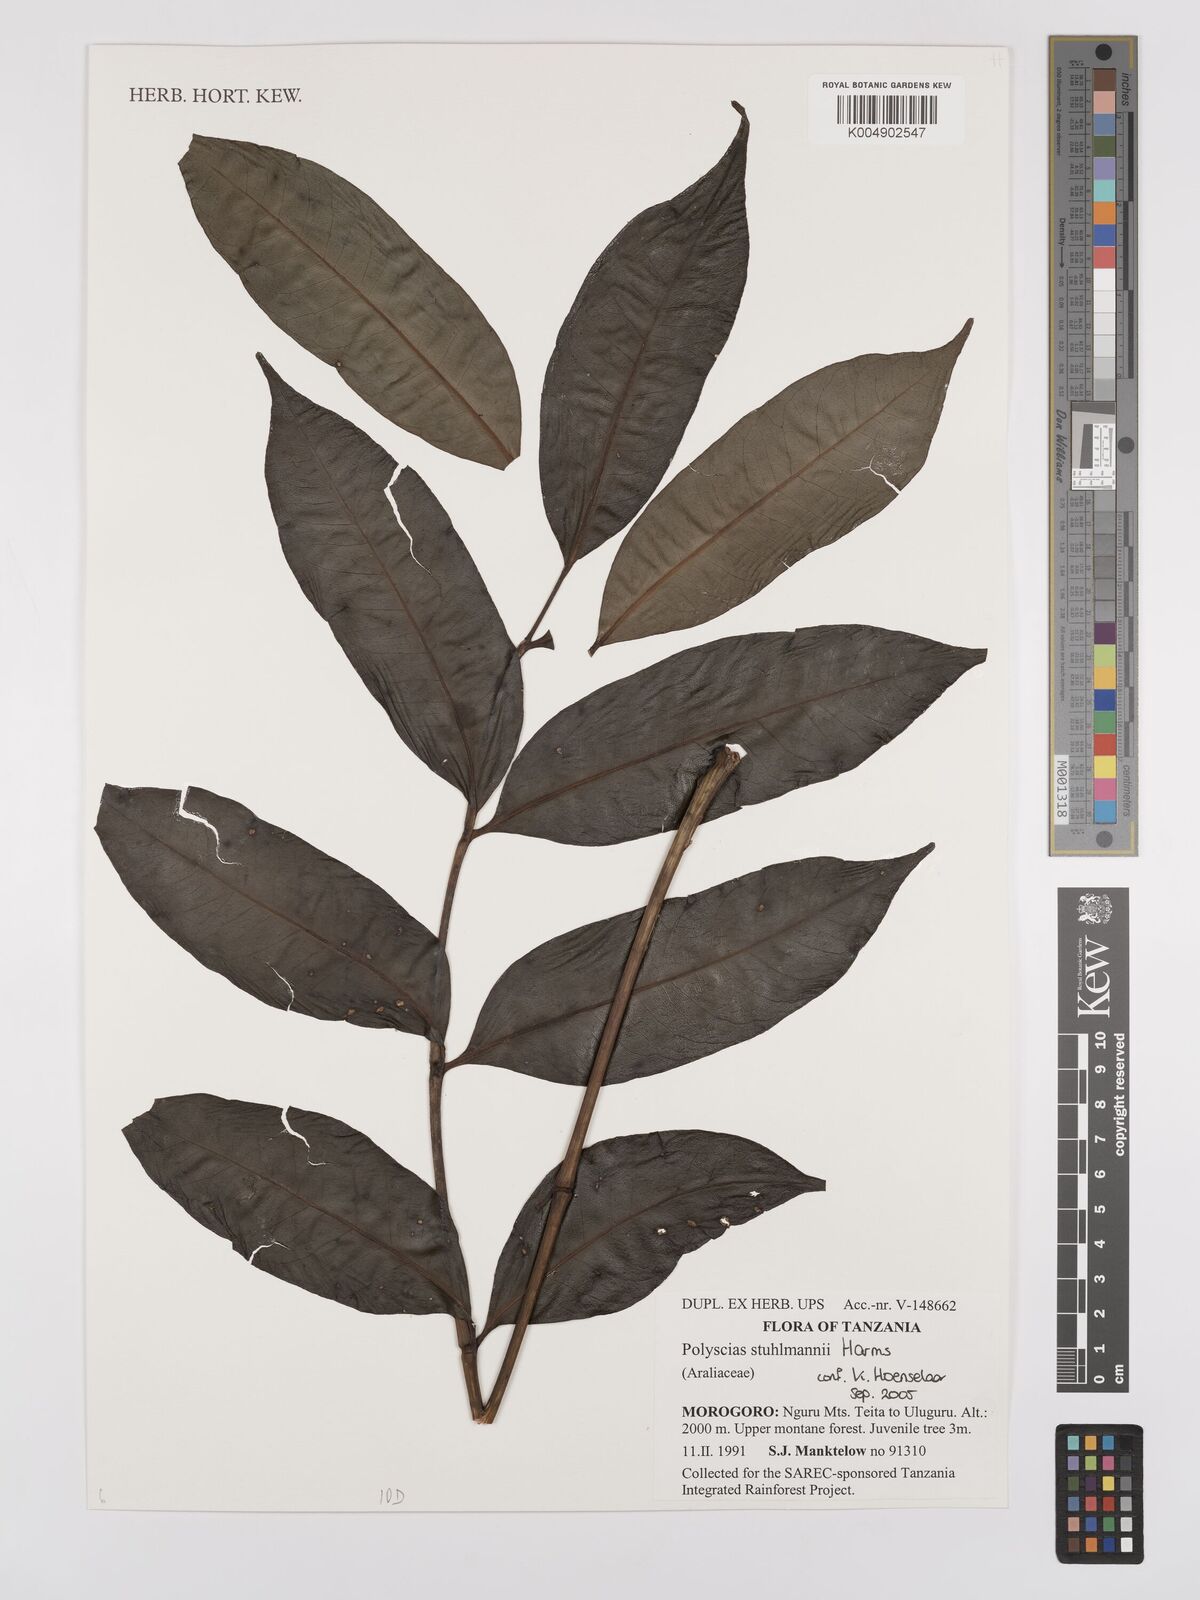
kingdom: Plantae
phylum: Tracheophyta
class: Magnoliopsida
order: Apiales
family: Araliaceae
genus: Polyscias
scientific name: Polyscias stuhlmannii
